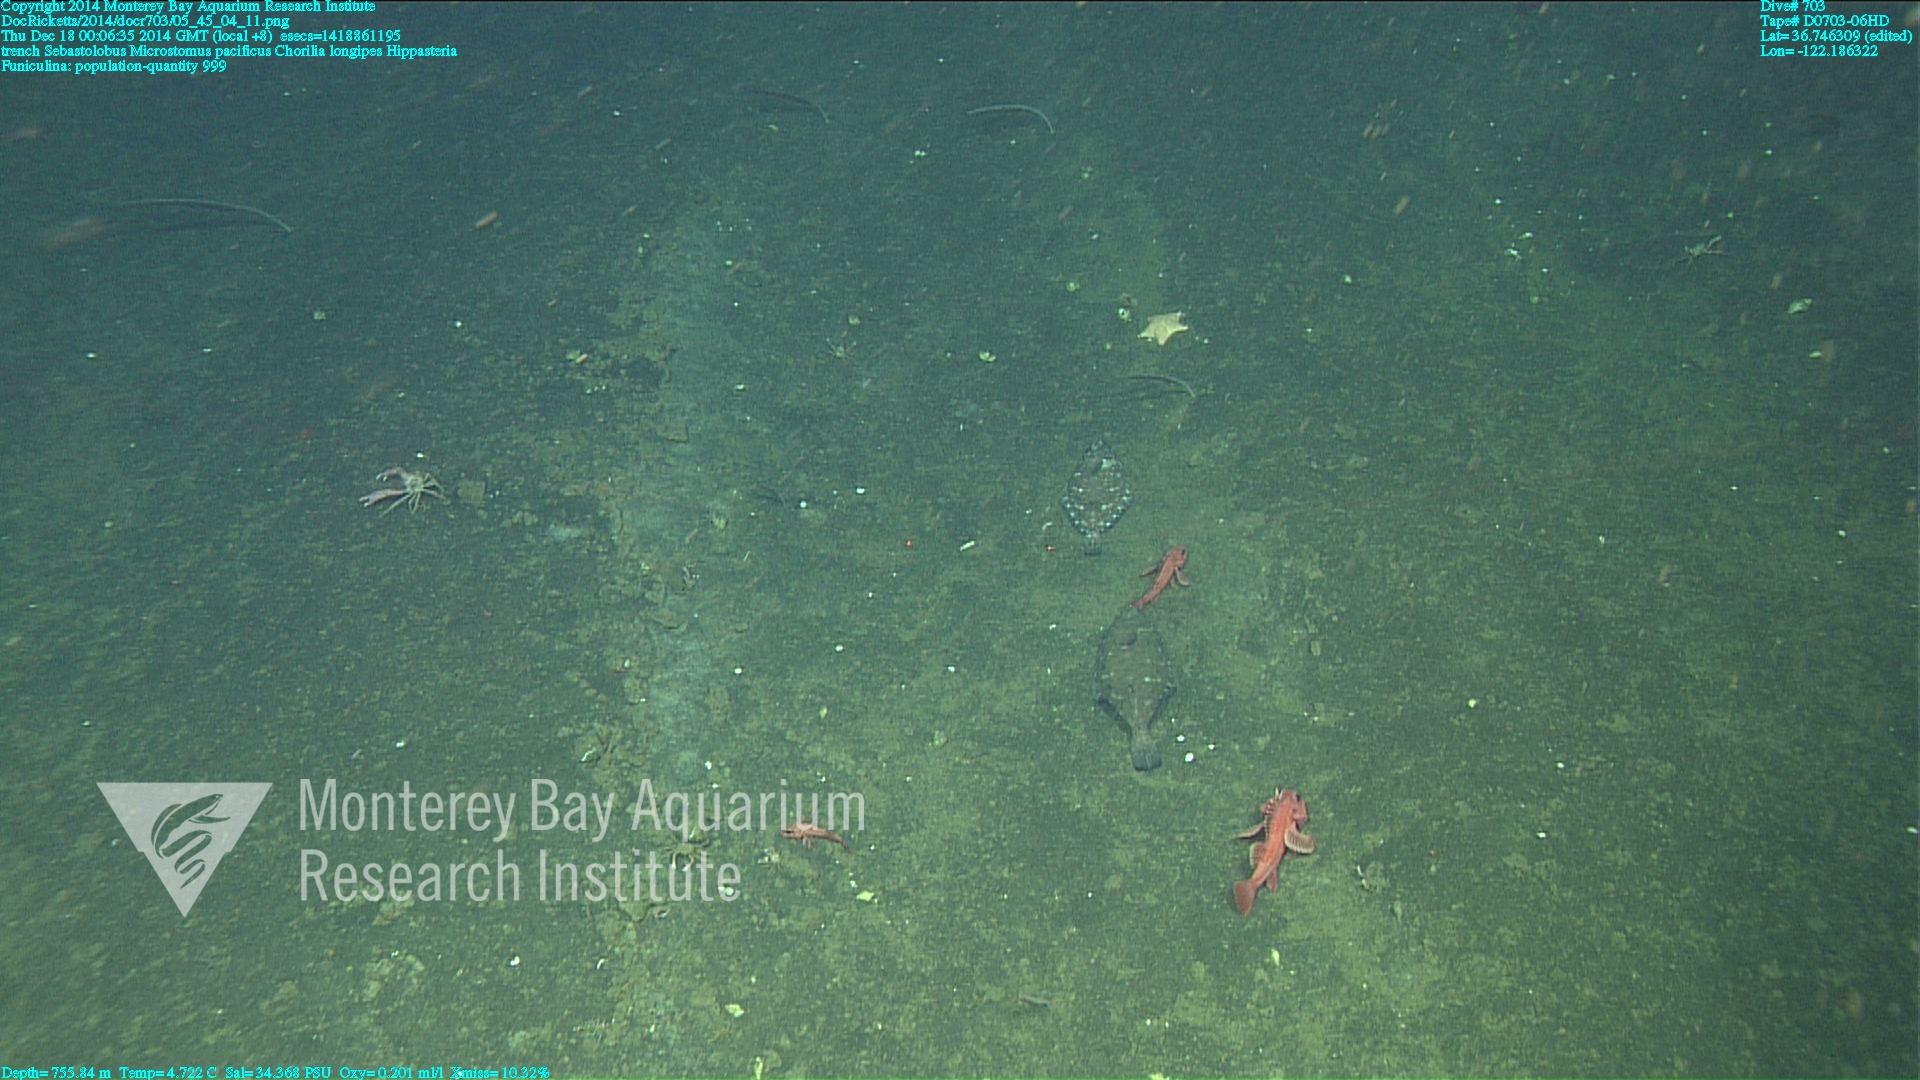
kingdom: Animalia
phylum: Cnidaria
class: Anthozoa
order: Scleralcyonacea
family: Funiculinidae
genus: Funiculina
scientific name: Funiculina
